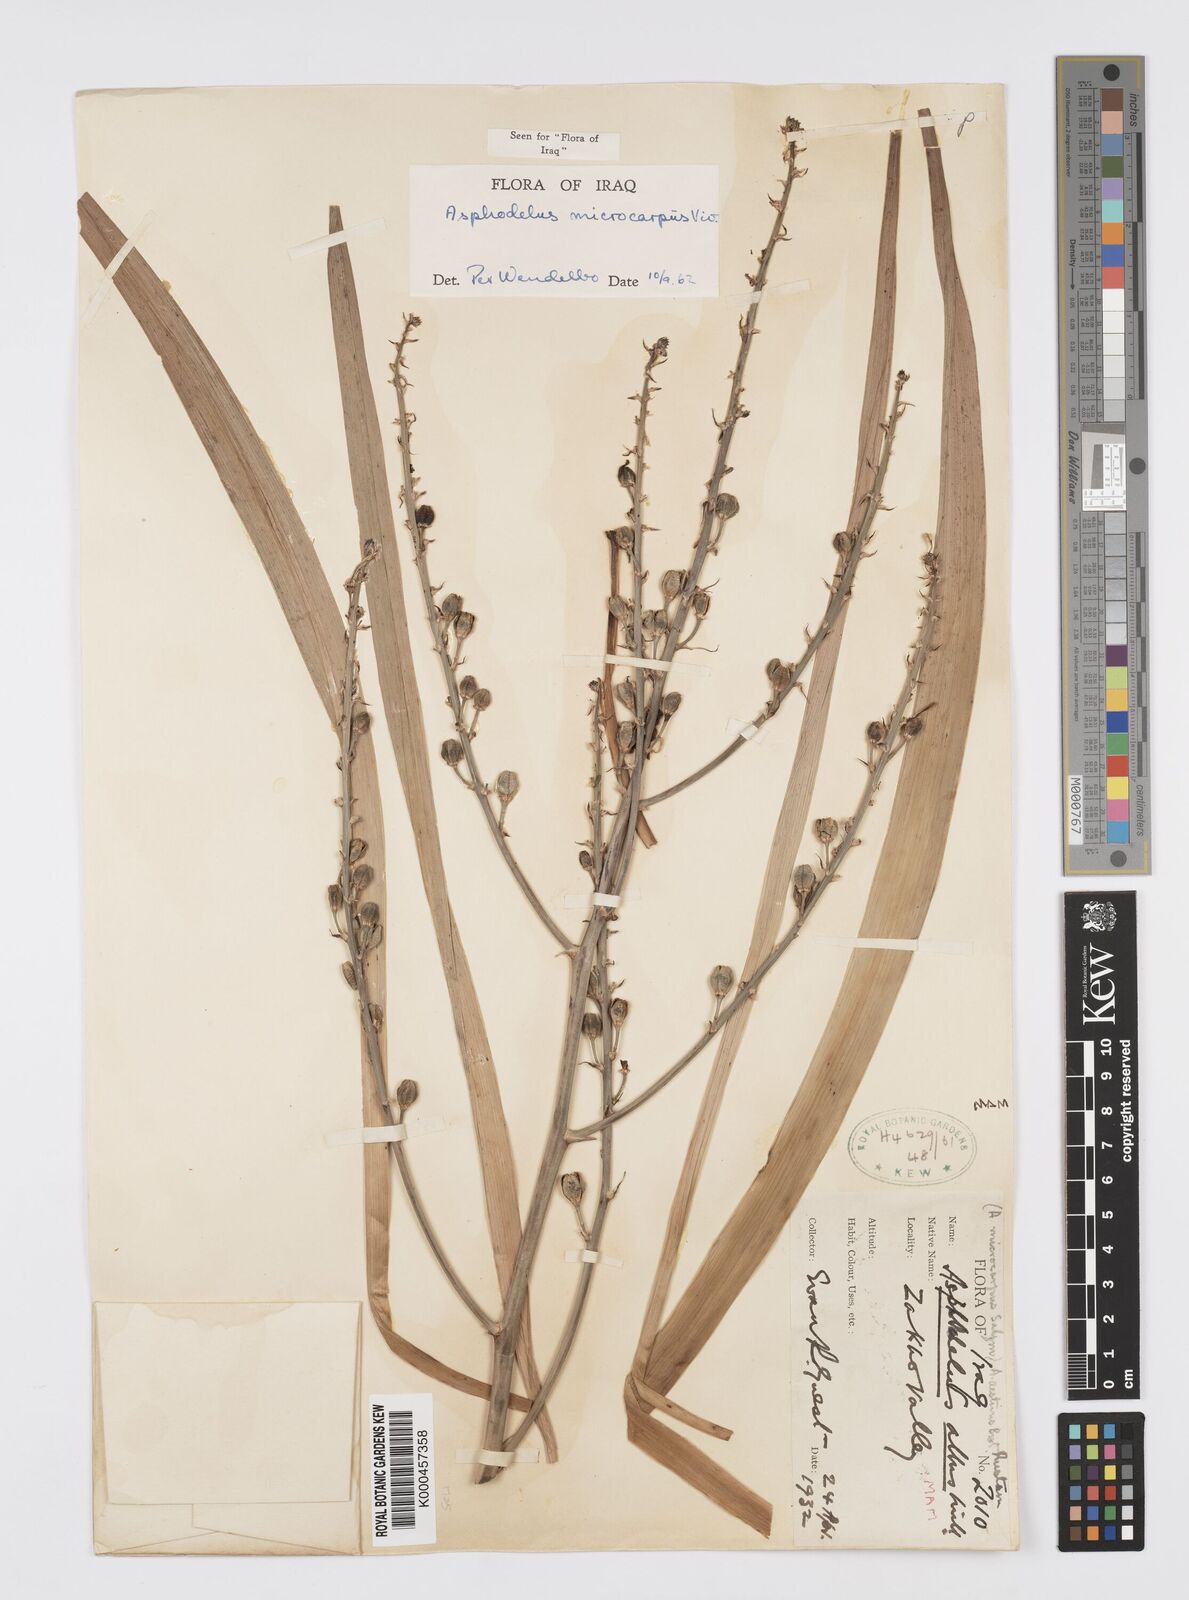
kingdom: Plantae
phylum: Tracheophyta
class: Liliopsida
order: Asparagales
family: Asphodelaceae
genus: Asphodelus
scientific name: Asphodelus aestivus
